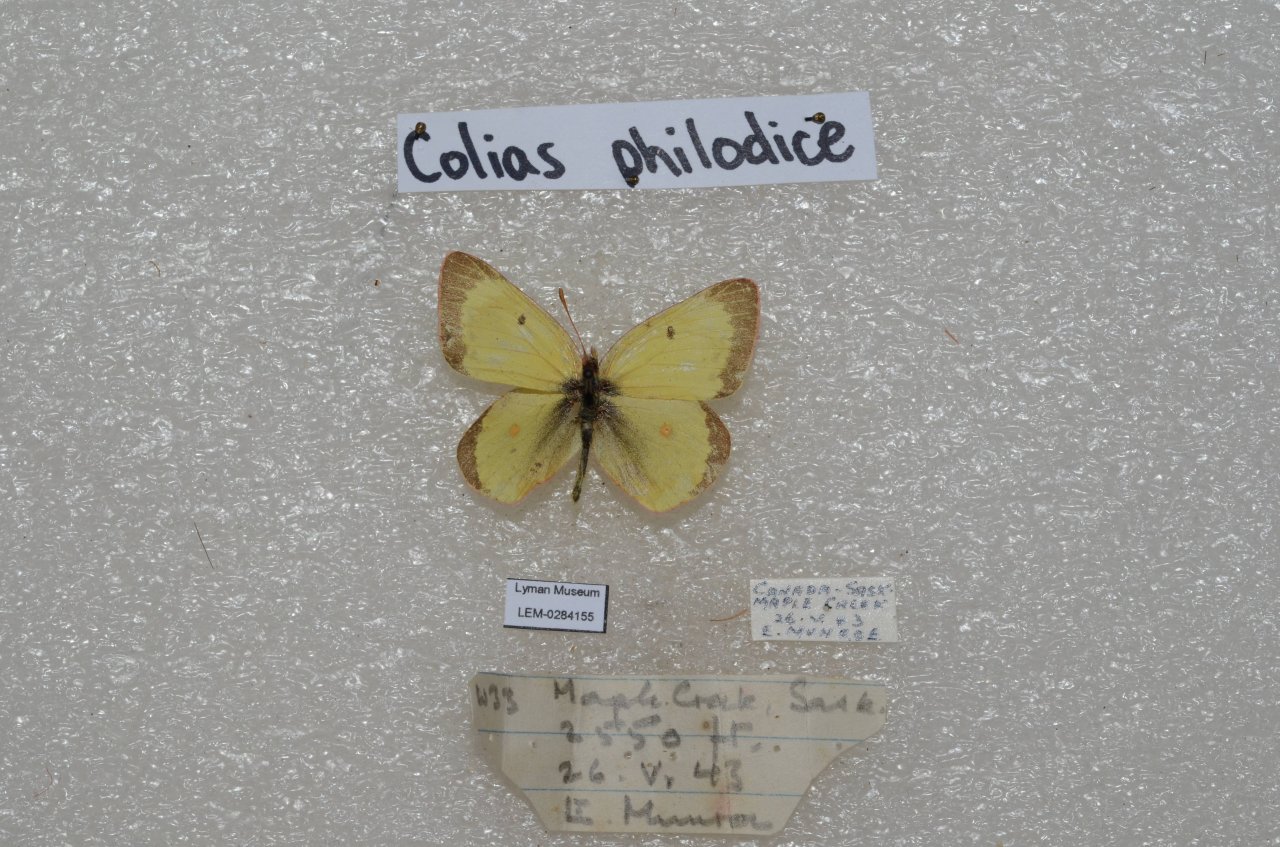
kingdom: Animalia
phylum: Arthropoda
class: Insecta
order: Lepidoptera
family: Pieridae
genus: Colias
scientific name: Colias philodice
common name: Clouded Sulphur
